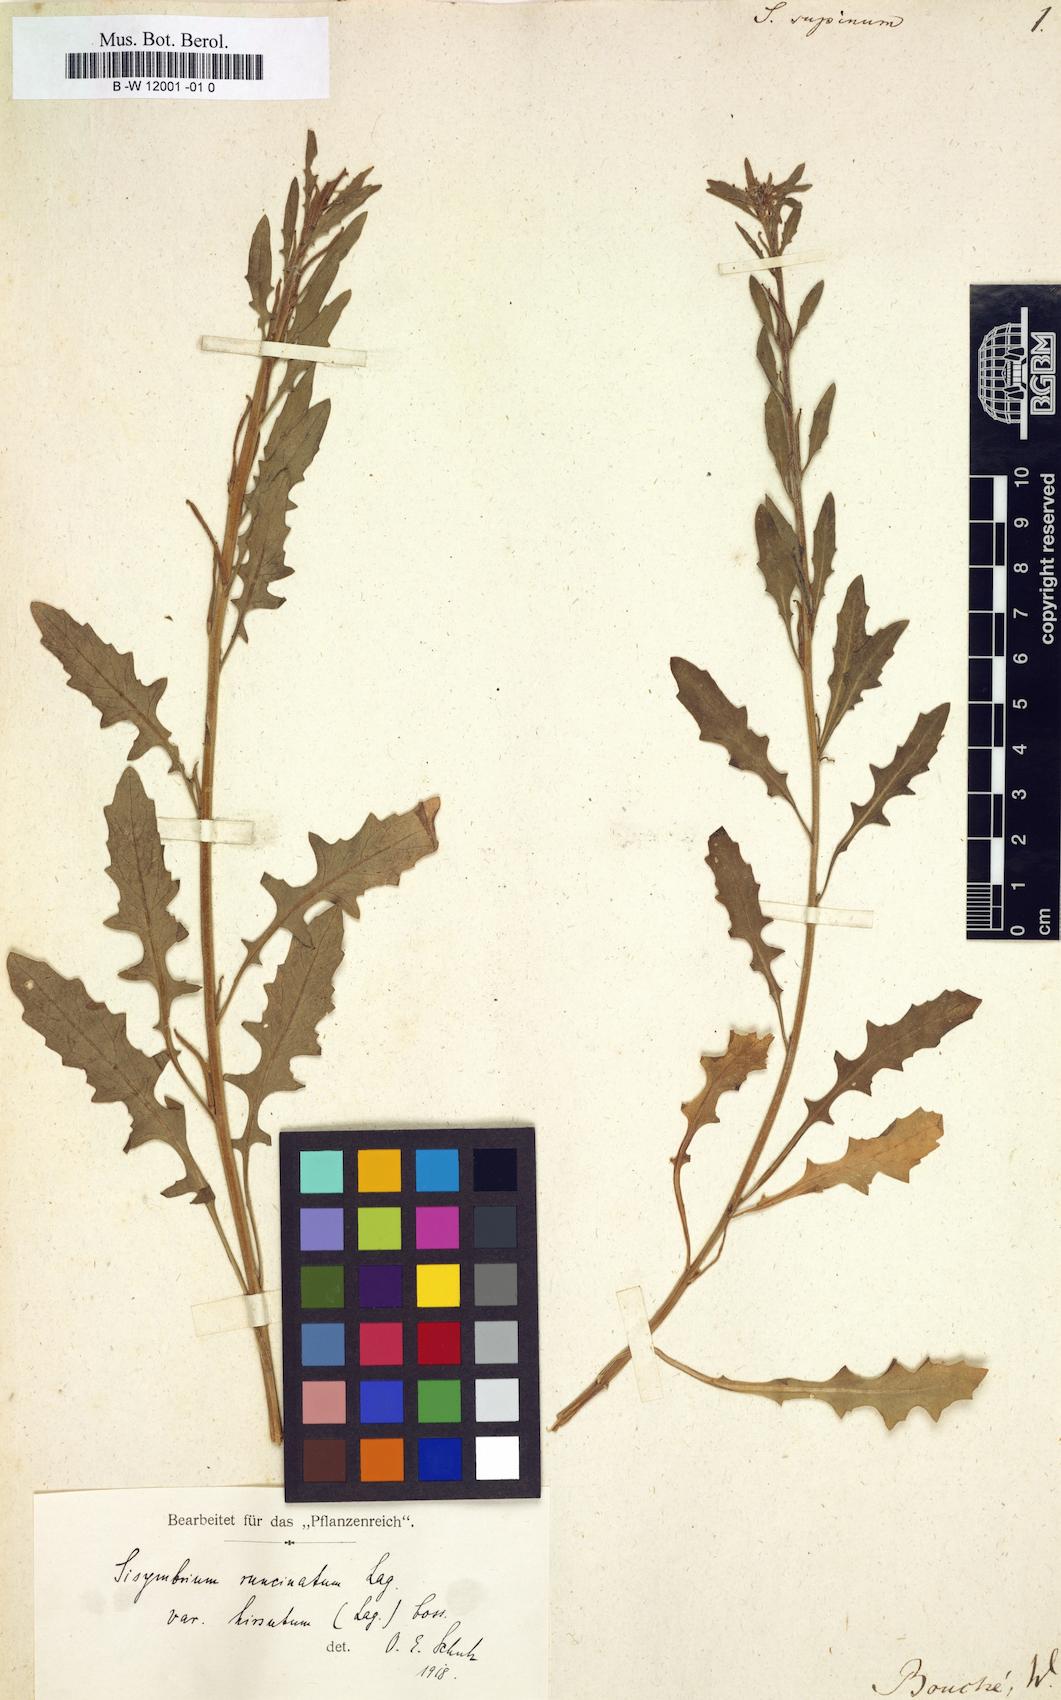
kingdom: Plantae
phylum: Tracheophyta
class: Magnoliopsida
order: Brassicales
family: Brassicaceae
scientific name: Brassicaceae
